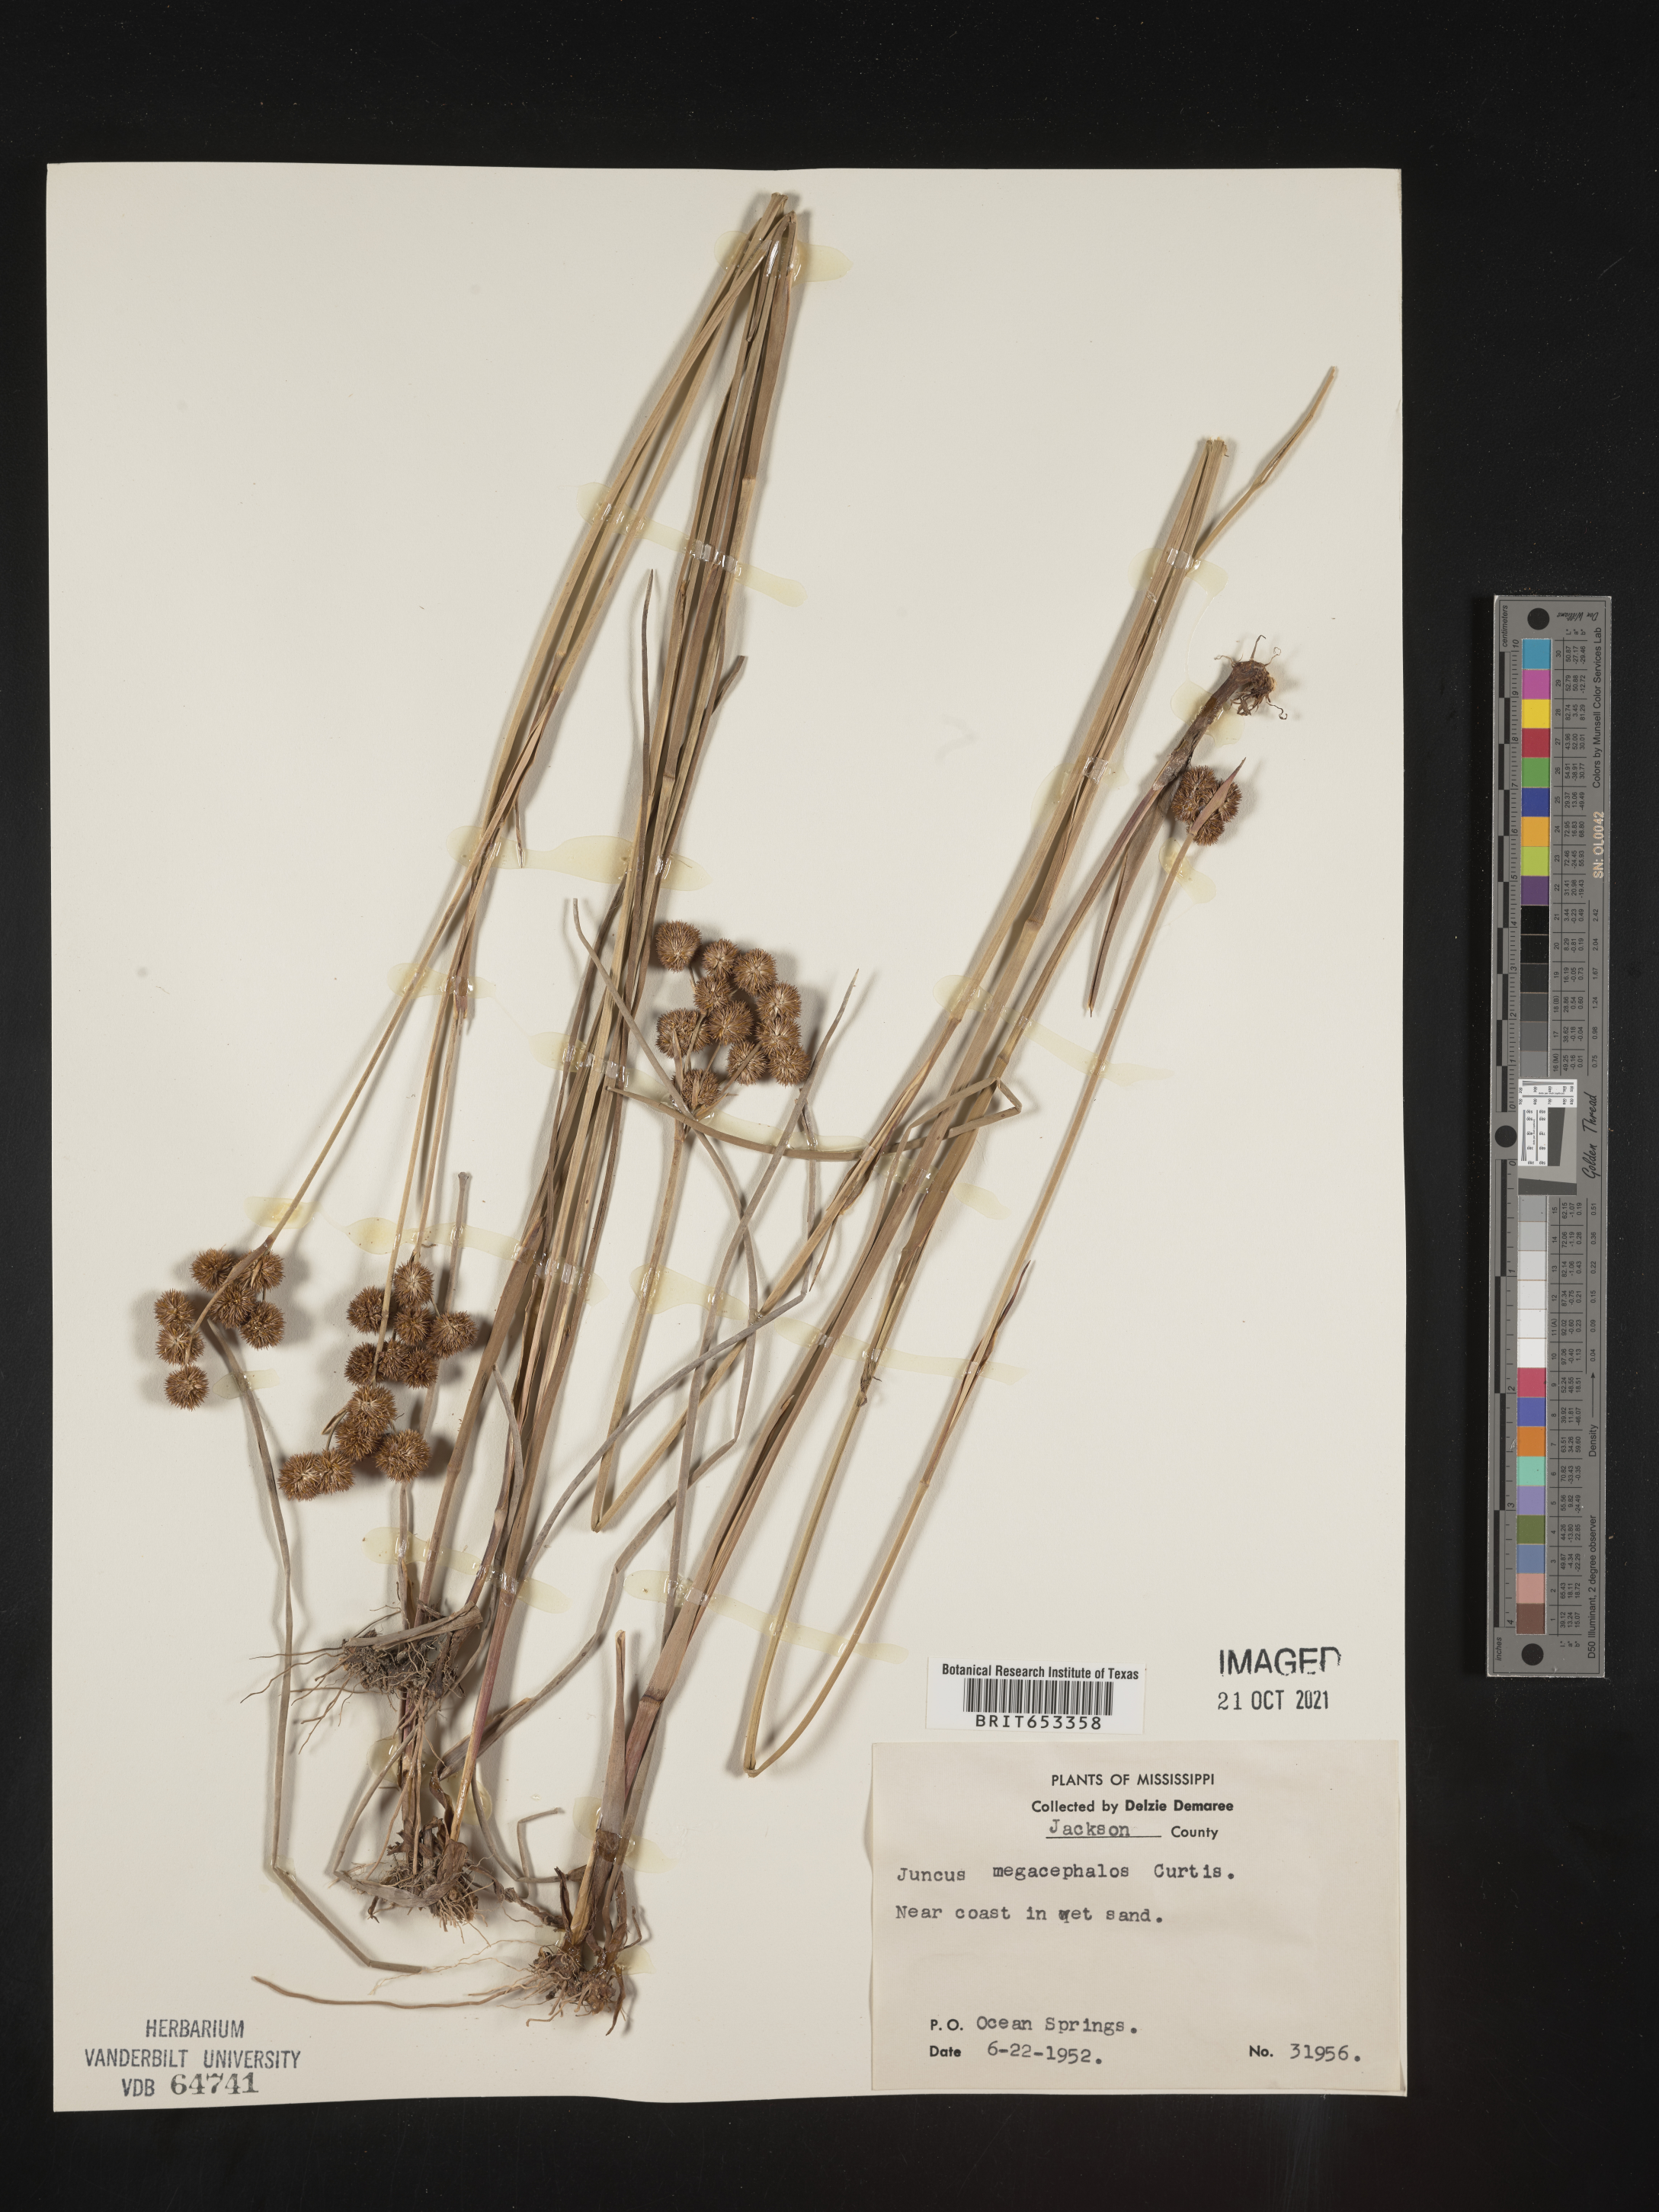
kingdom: Plantae
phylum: Tracheophyta
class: Liliopsida
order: Poales
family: Juncaceae
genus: Juncus
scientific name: Juncus megacephalus
